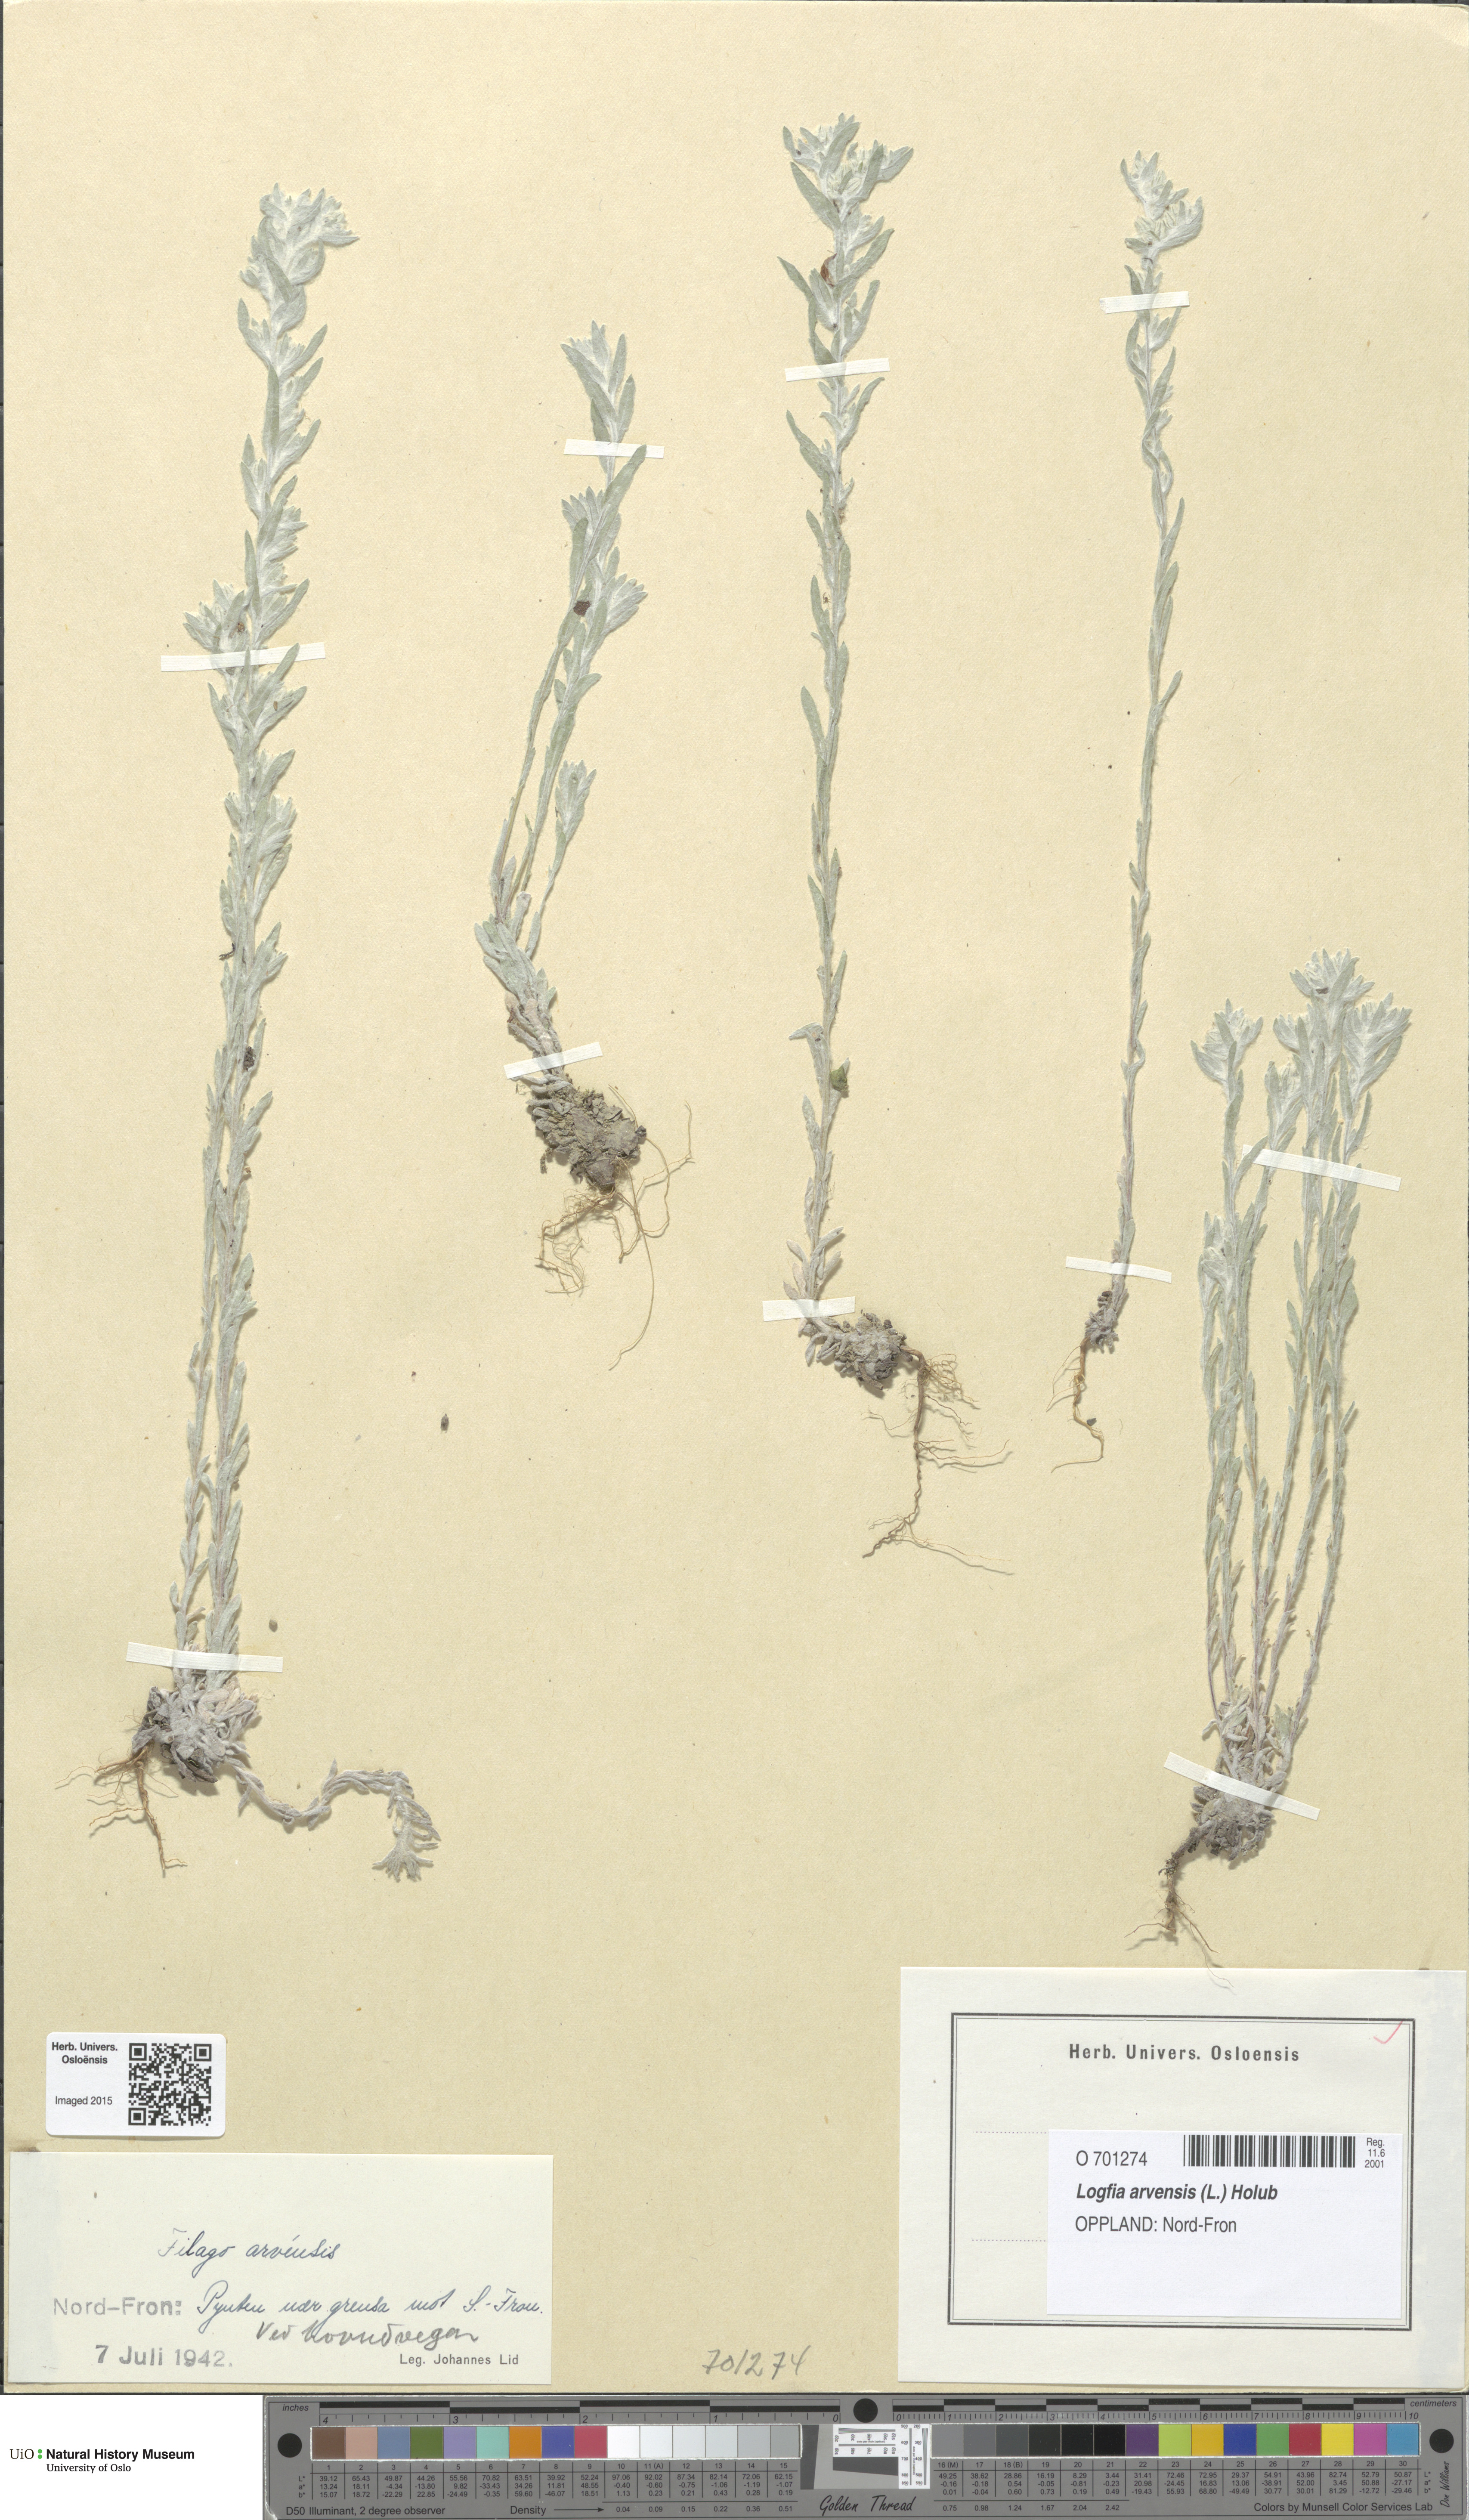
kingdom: Plantae
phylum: Tracheophyta
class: Magnoliopsida
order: Asterales
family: Asteraceae
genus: Filago
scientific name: Filago arvensis
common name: Field cudweed
